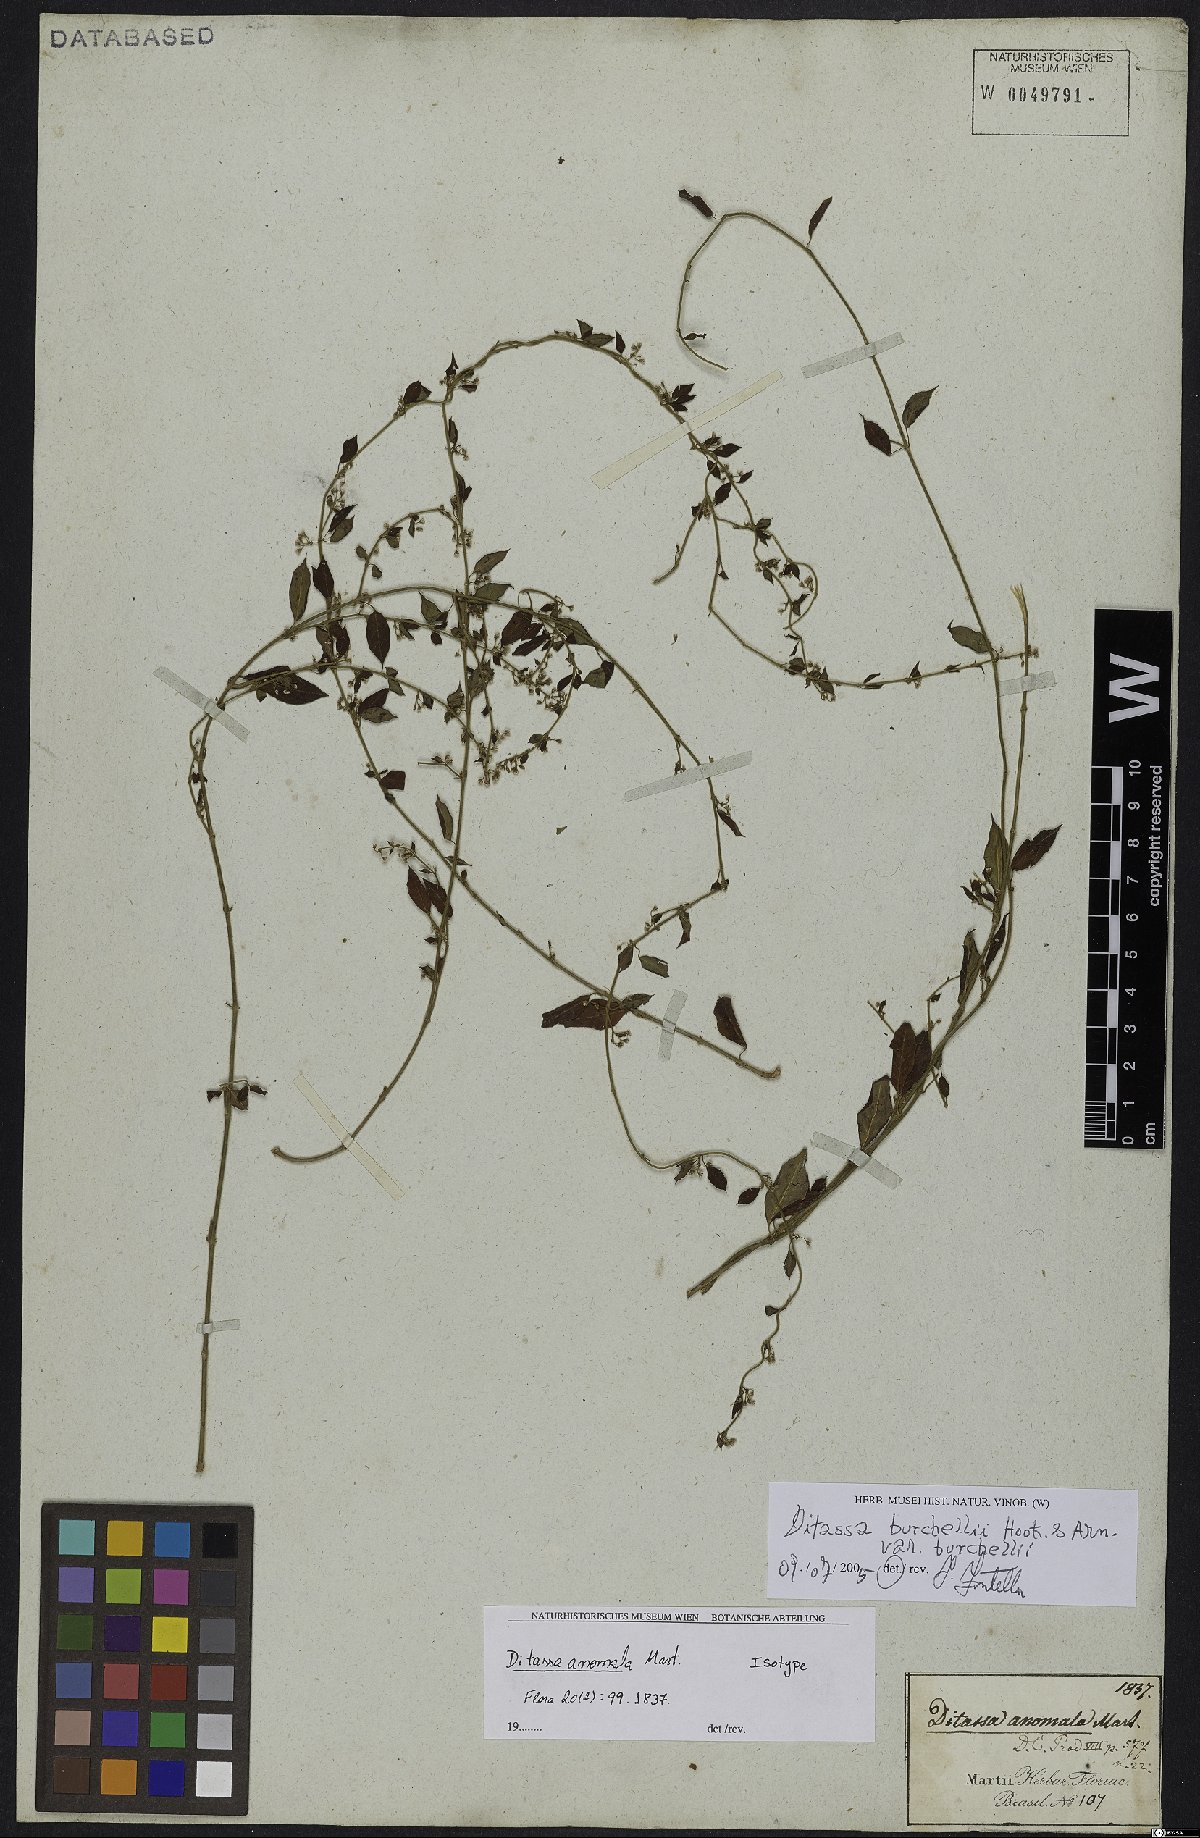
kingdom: Plantae
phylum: Tracheophyta
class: Magnoliopsida
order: Gentianales
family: Apocynaceae
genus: Metastelma
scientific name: Metastelma burchellii
